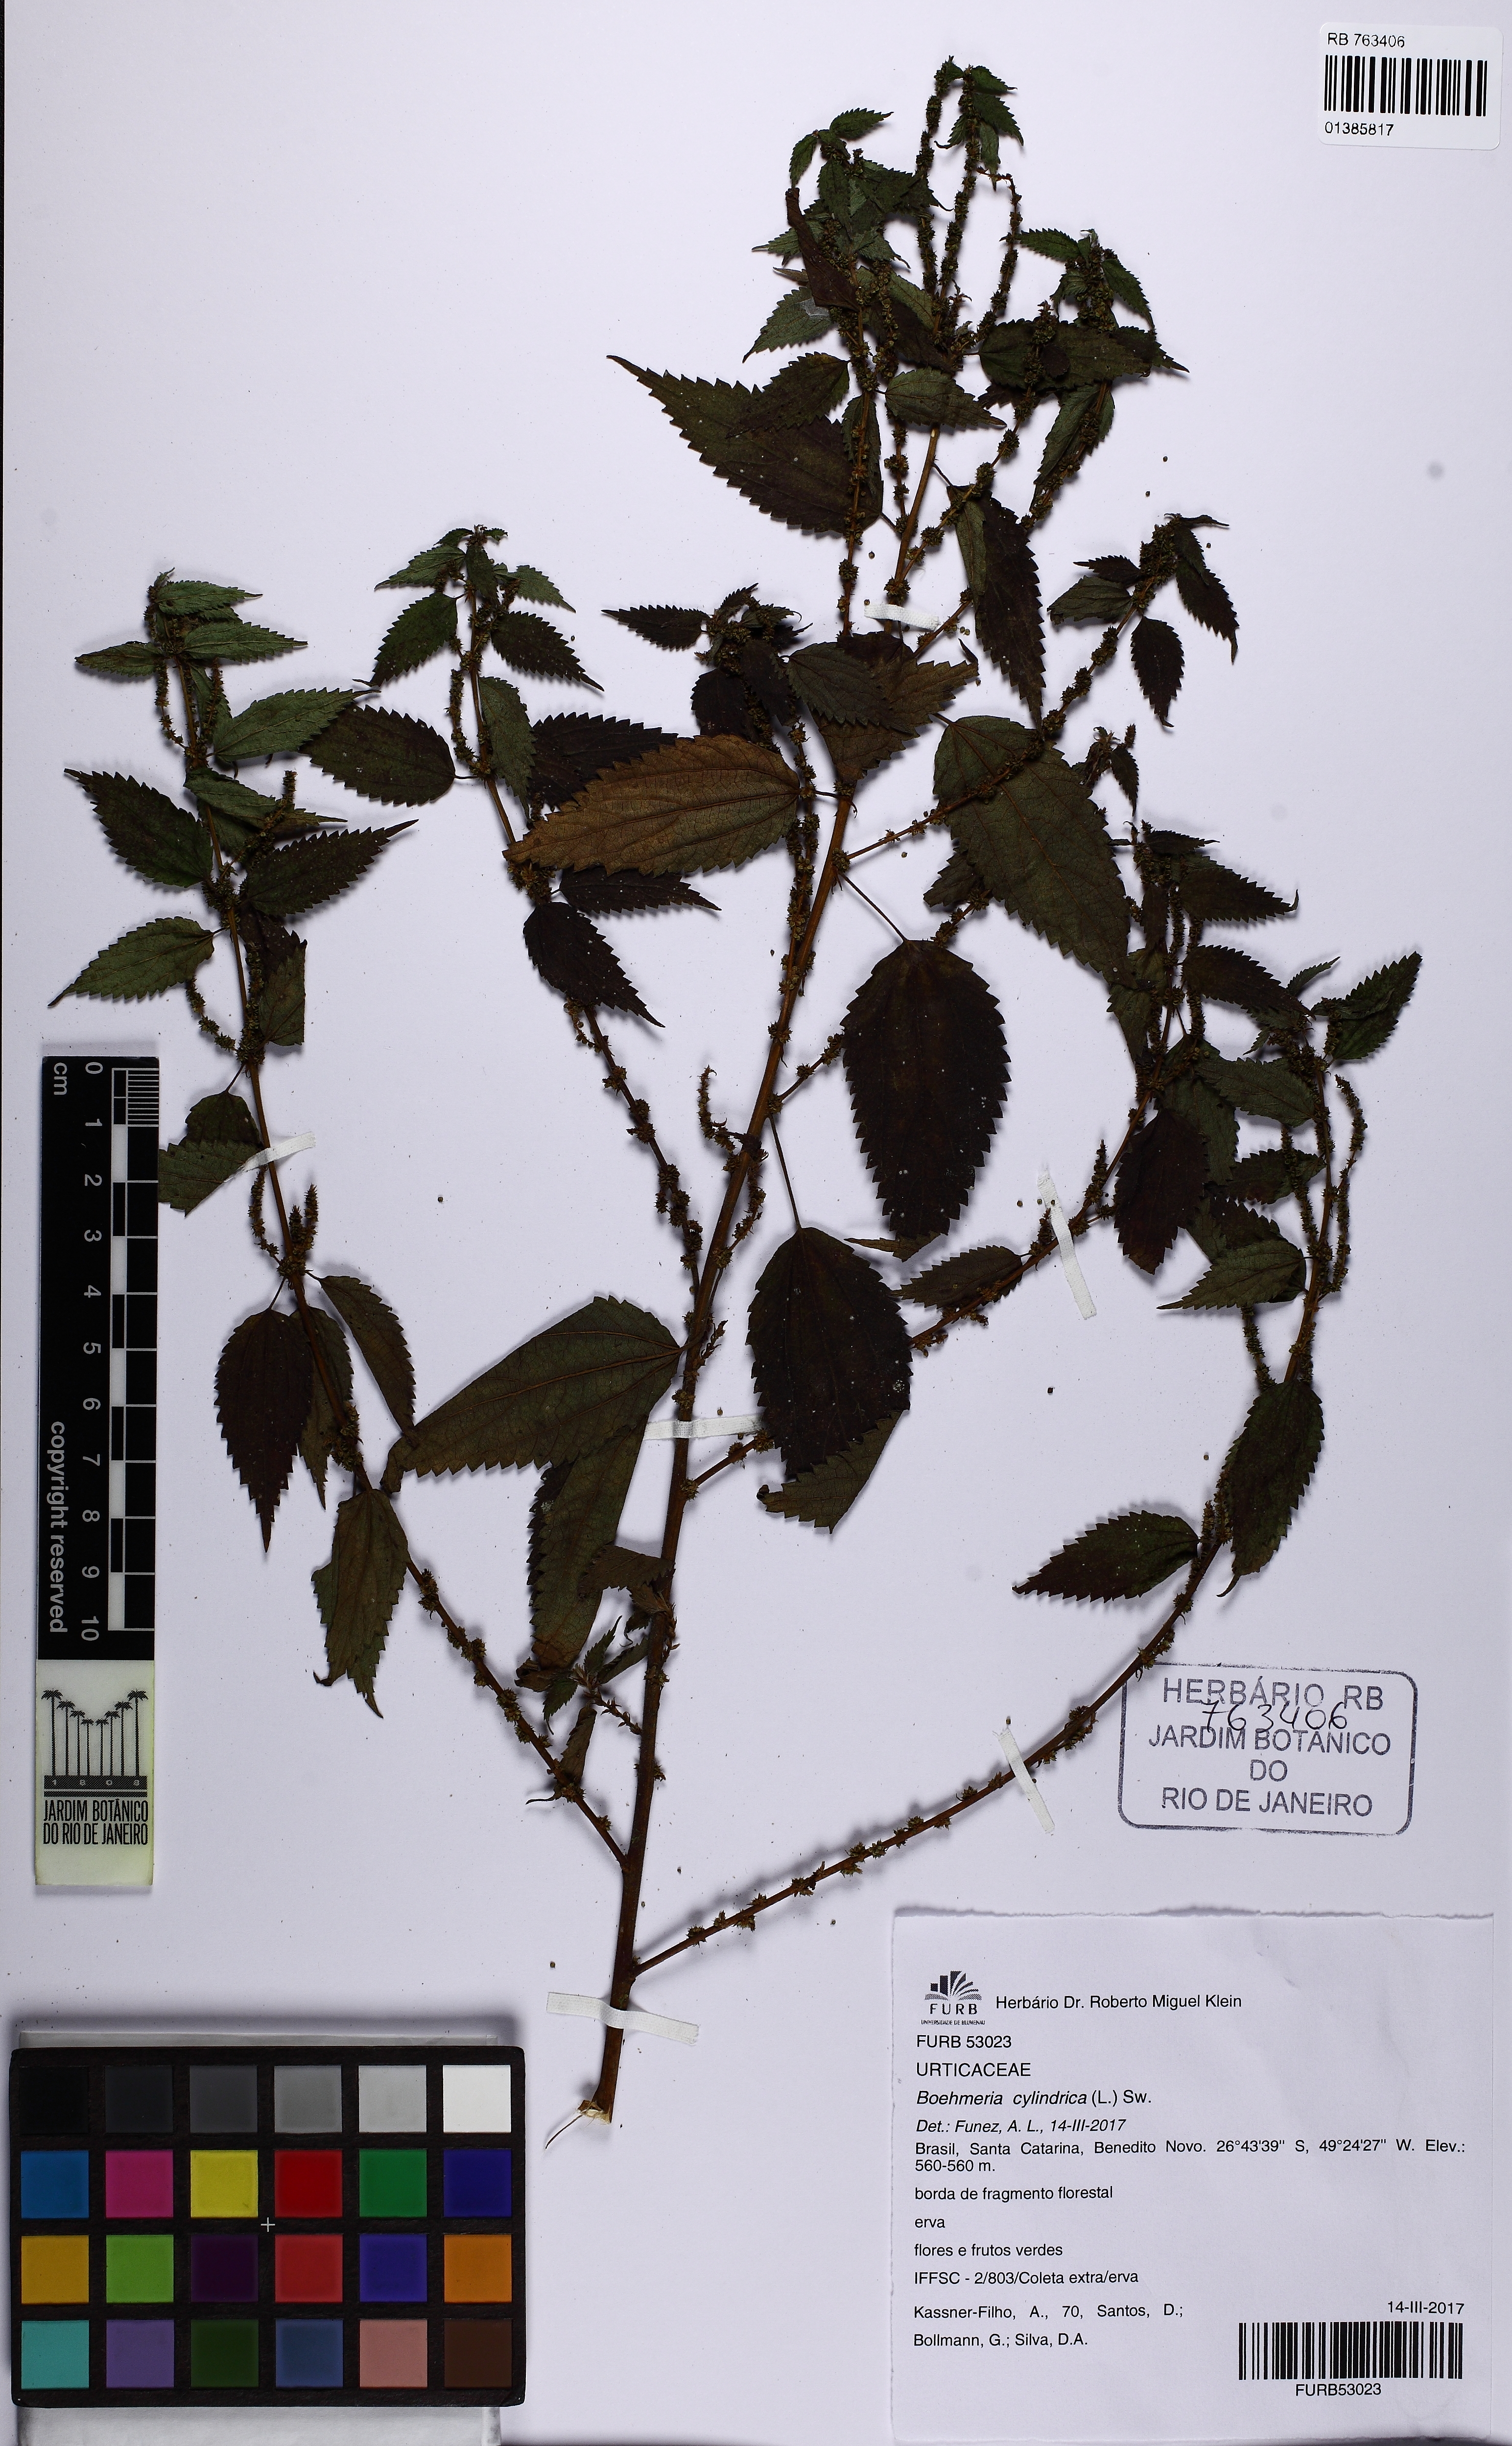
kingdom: Plantae
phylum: Tracheophyta
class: Magnoliopsida
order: Rosales
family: Urticaceae
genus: Boehmeria
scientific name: Boehmeria cylindrica
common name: Bog-hemp
